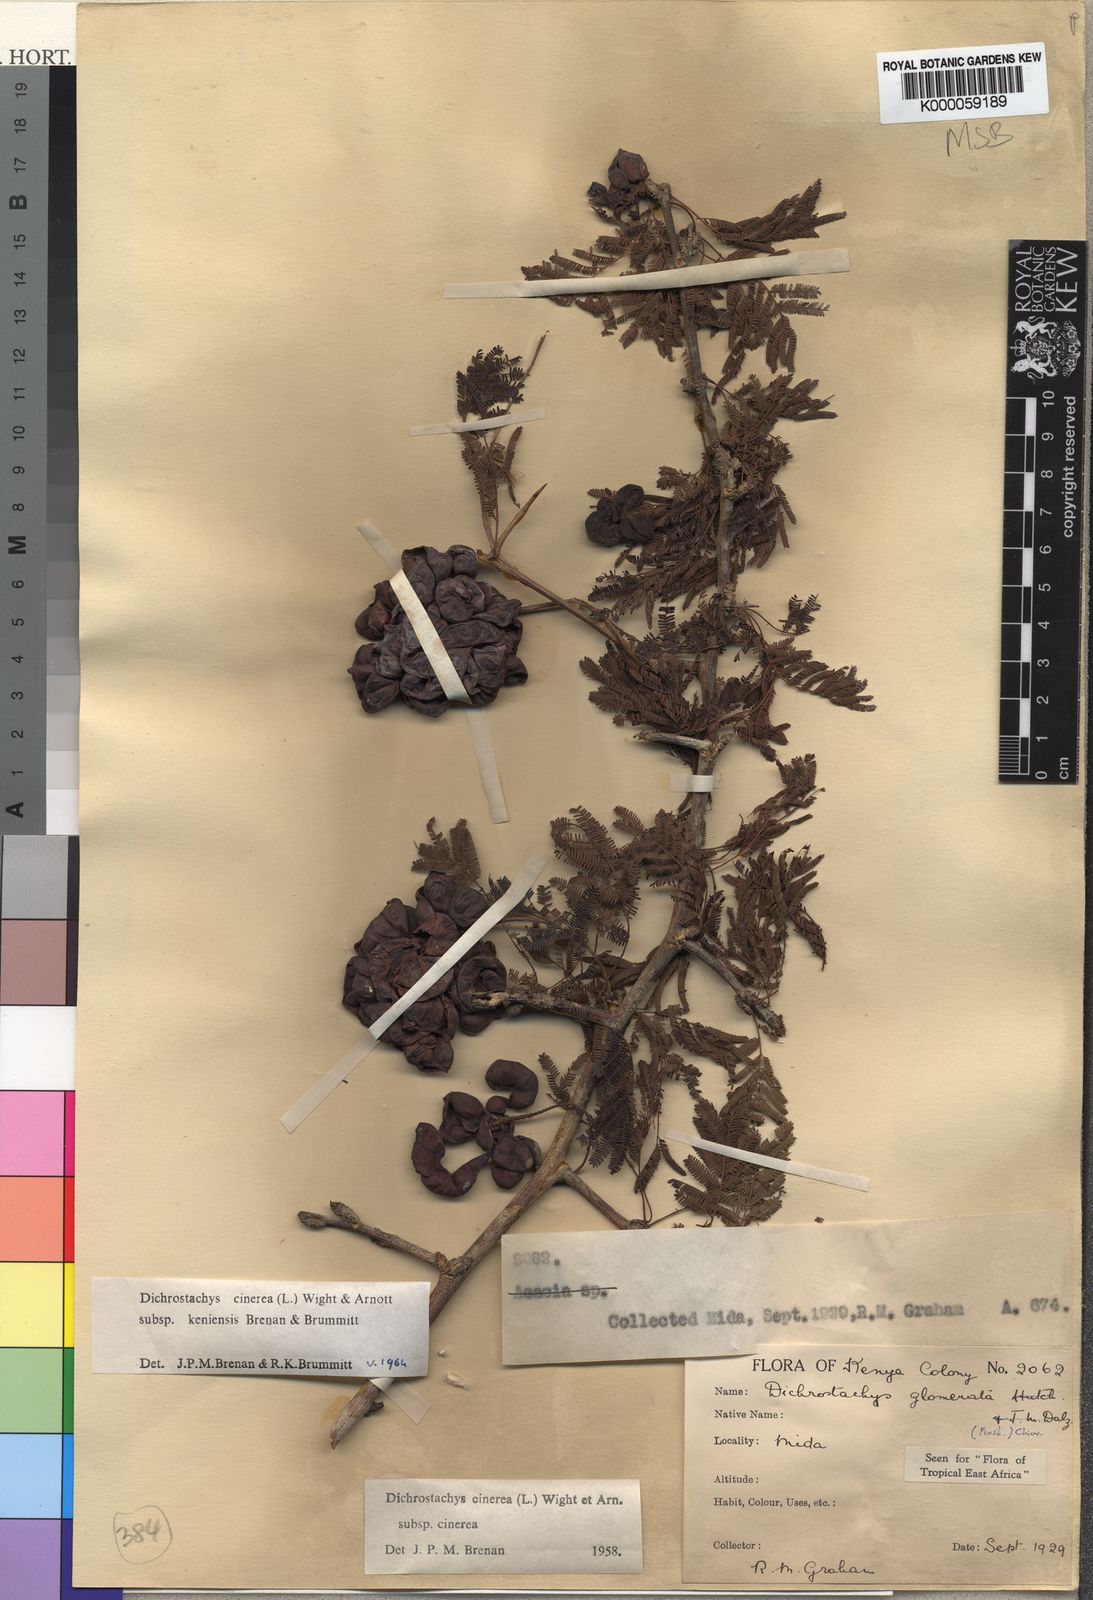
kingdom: Plantae
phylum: Tracheophyta
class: Magnoliopsida
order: Fabales
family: Fabaceae
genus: Dichrostachys
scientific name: Dichrostachys cinerea
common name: Sicklebush
